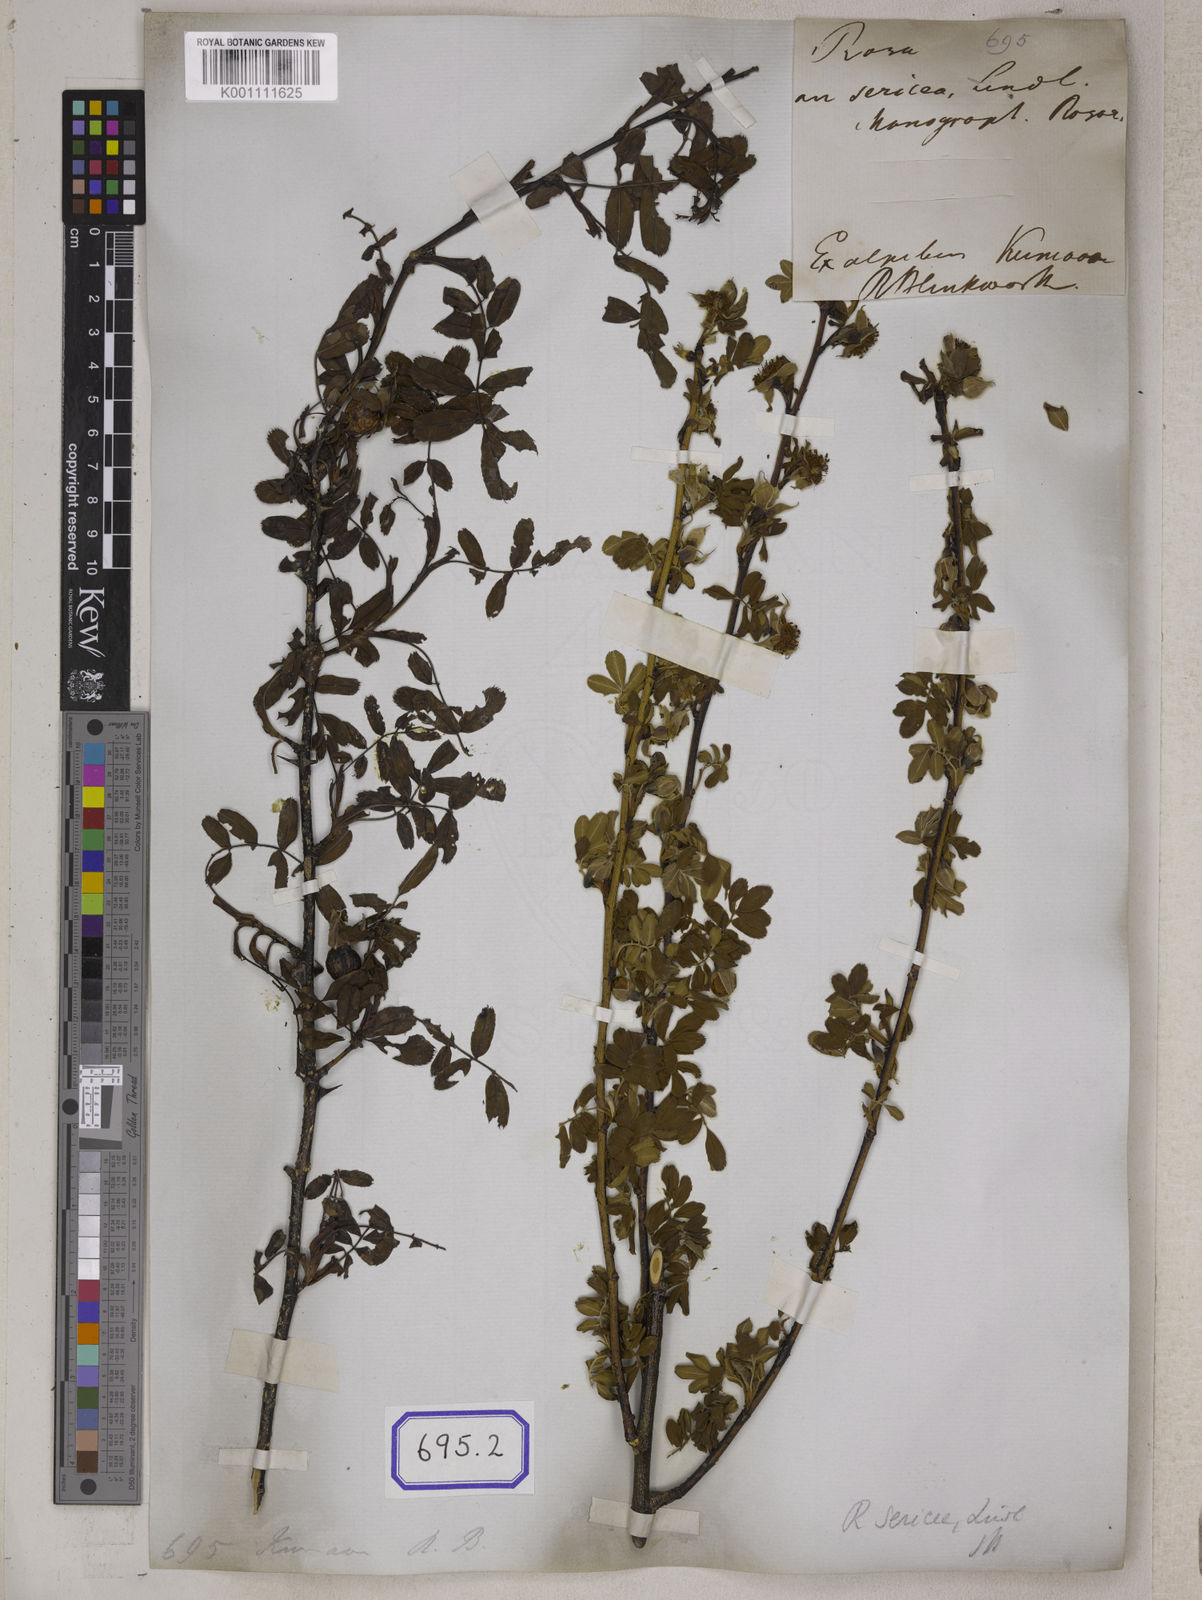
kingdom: Plantae
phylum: Tracheophyta
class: Magnoliopsida
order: Rosales
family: Rosaceae
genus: Rosa
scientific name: Rosa sericea
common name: Silky rose
